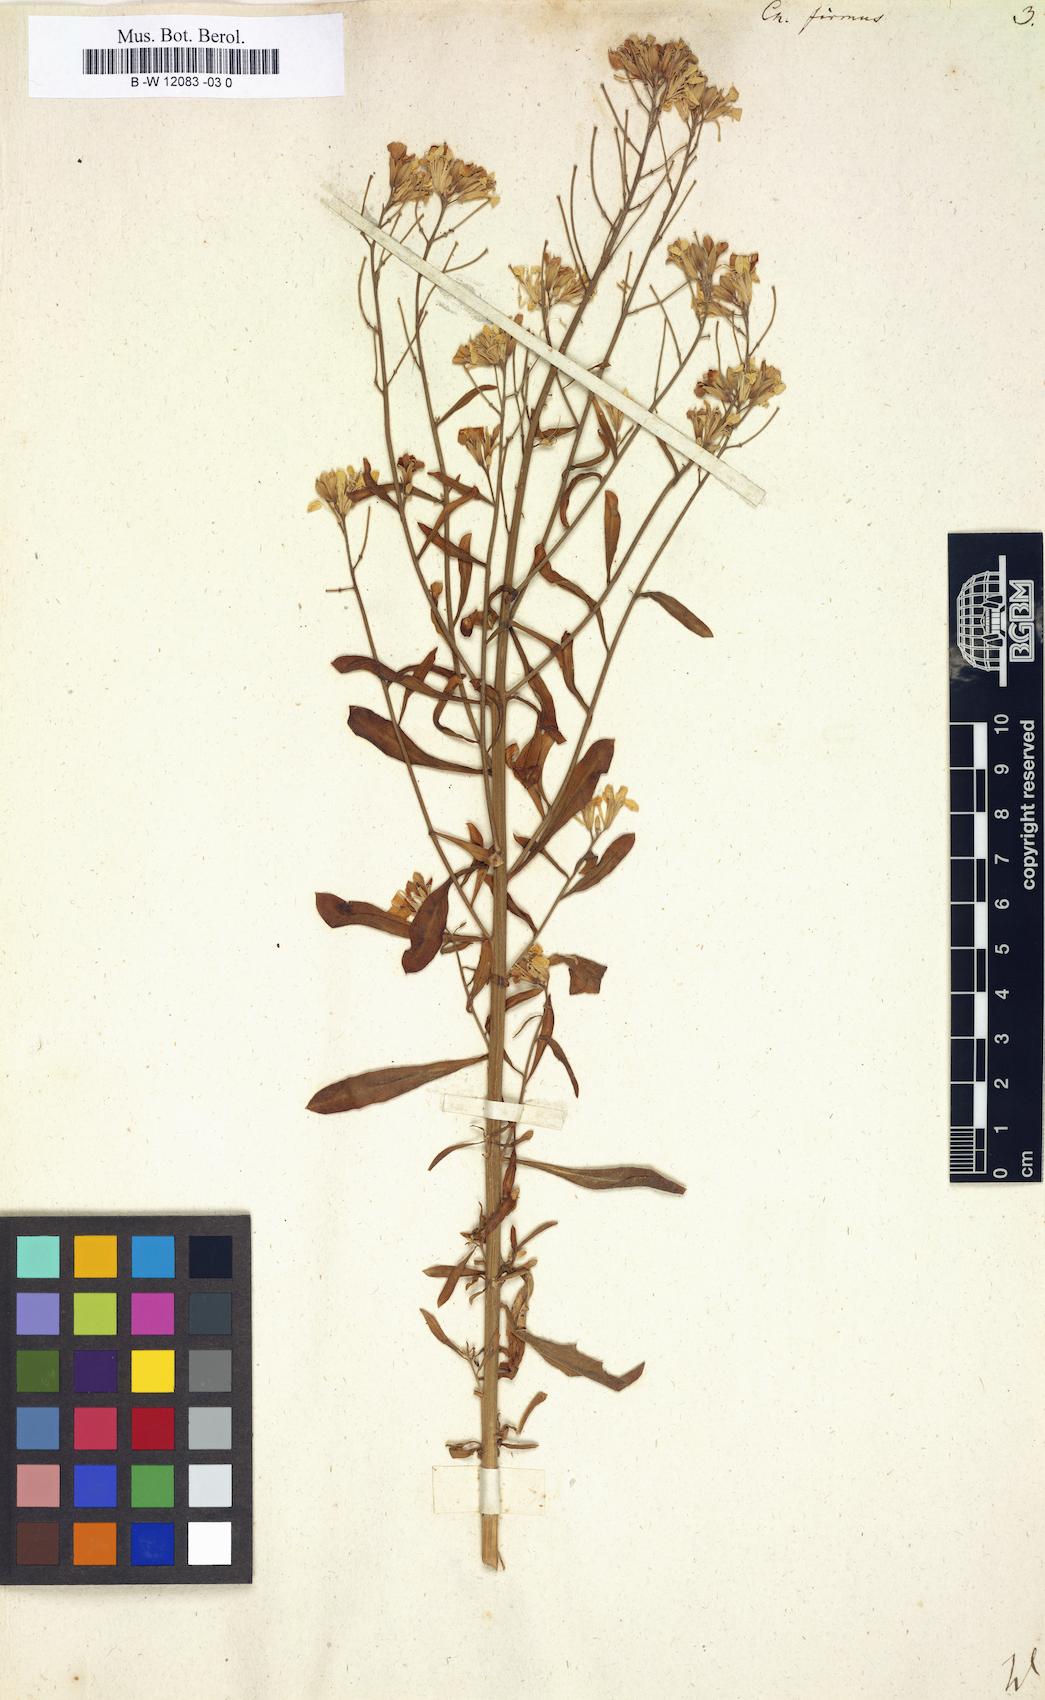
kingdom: Plantae
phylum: Tracheophyta
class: Magnoliopsida
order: Brassicales
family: Brassicaceae
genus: Erysimum
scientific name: Erysimum
